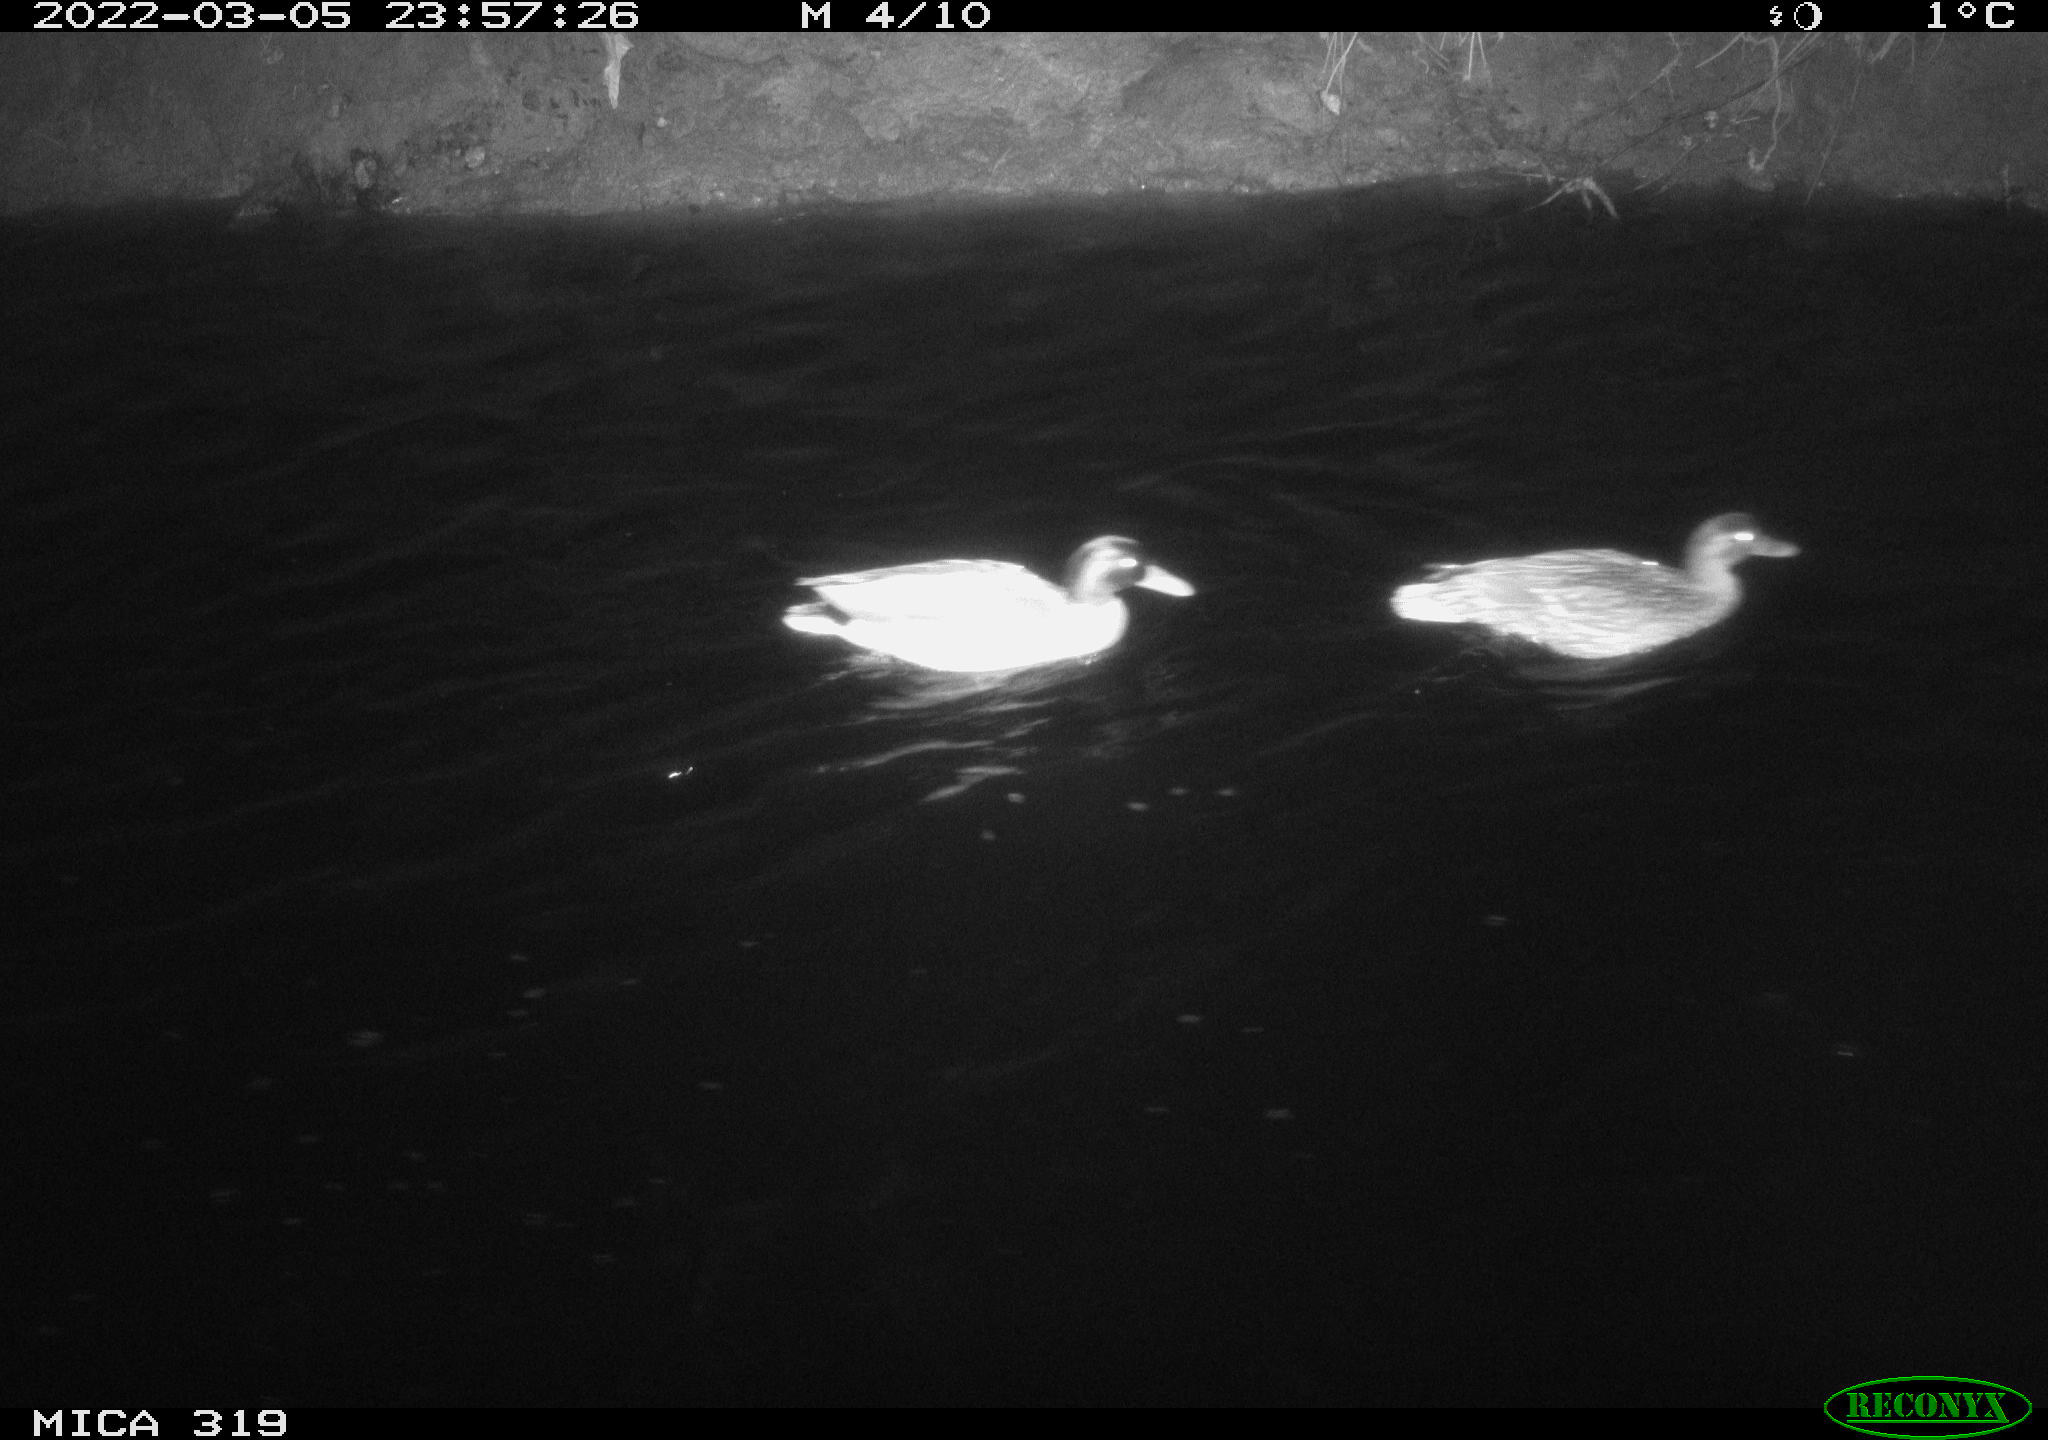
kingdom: Animalia
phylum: Chordata
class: Aves
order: Anseriformes
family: Anatidae
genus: Anas
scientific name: Anas platyrhynchos
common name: Mallard
